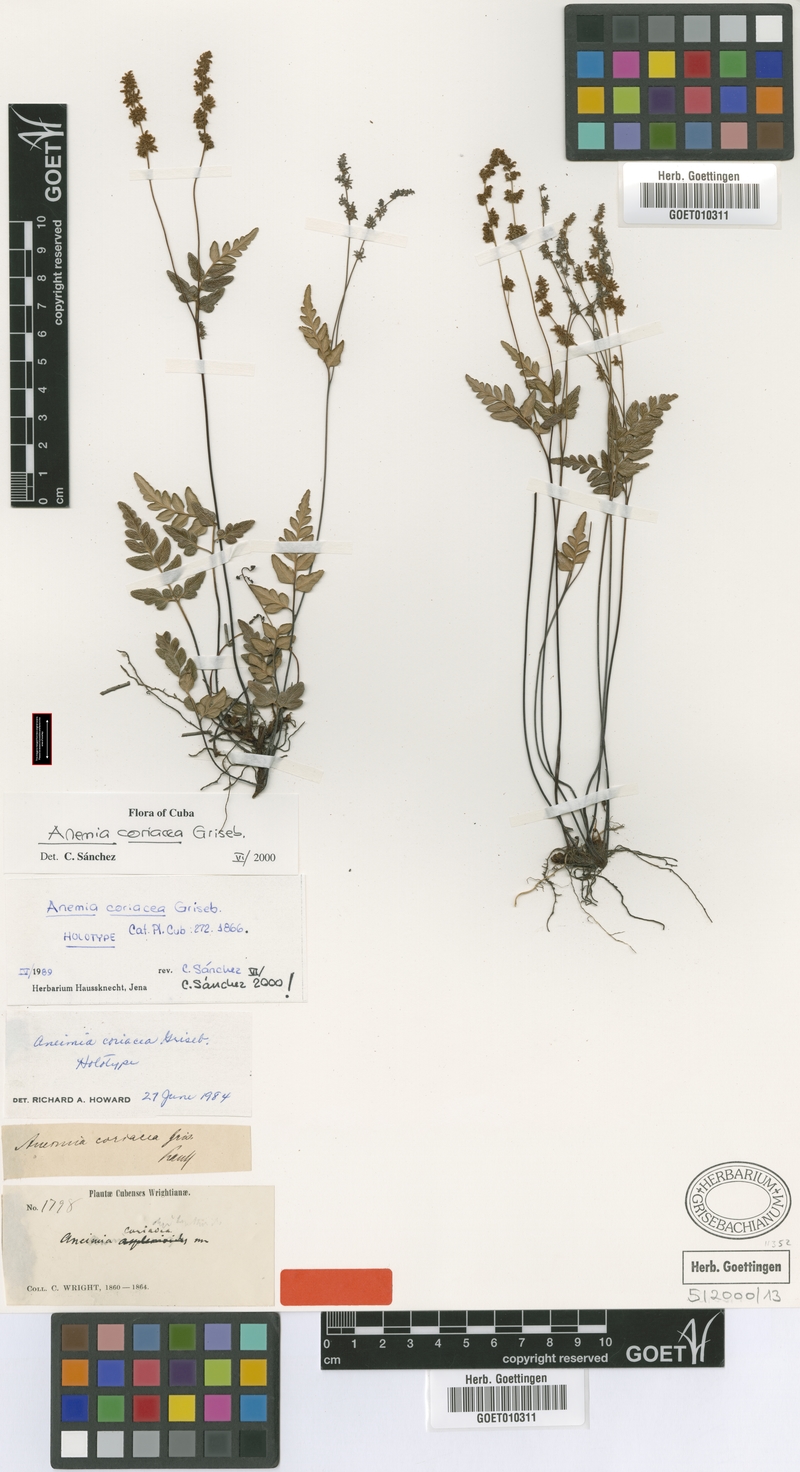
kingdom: Plantae
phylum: Tracheophyta
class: Polypodiopsida
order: Schizaeales
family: Anemiaceae
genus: Anemia
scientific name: Anemia coriacea
